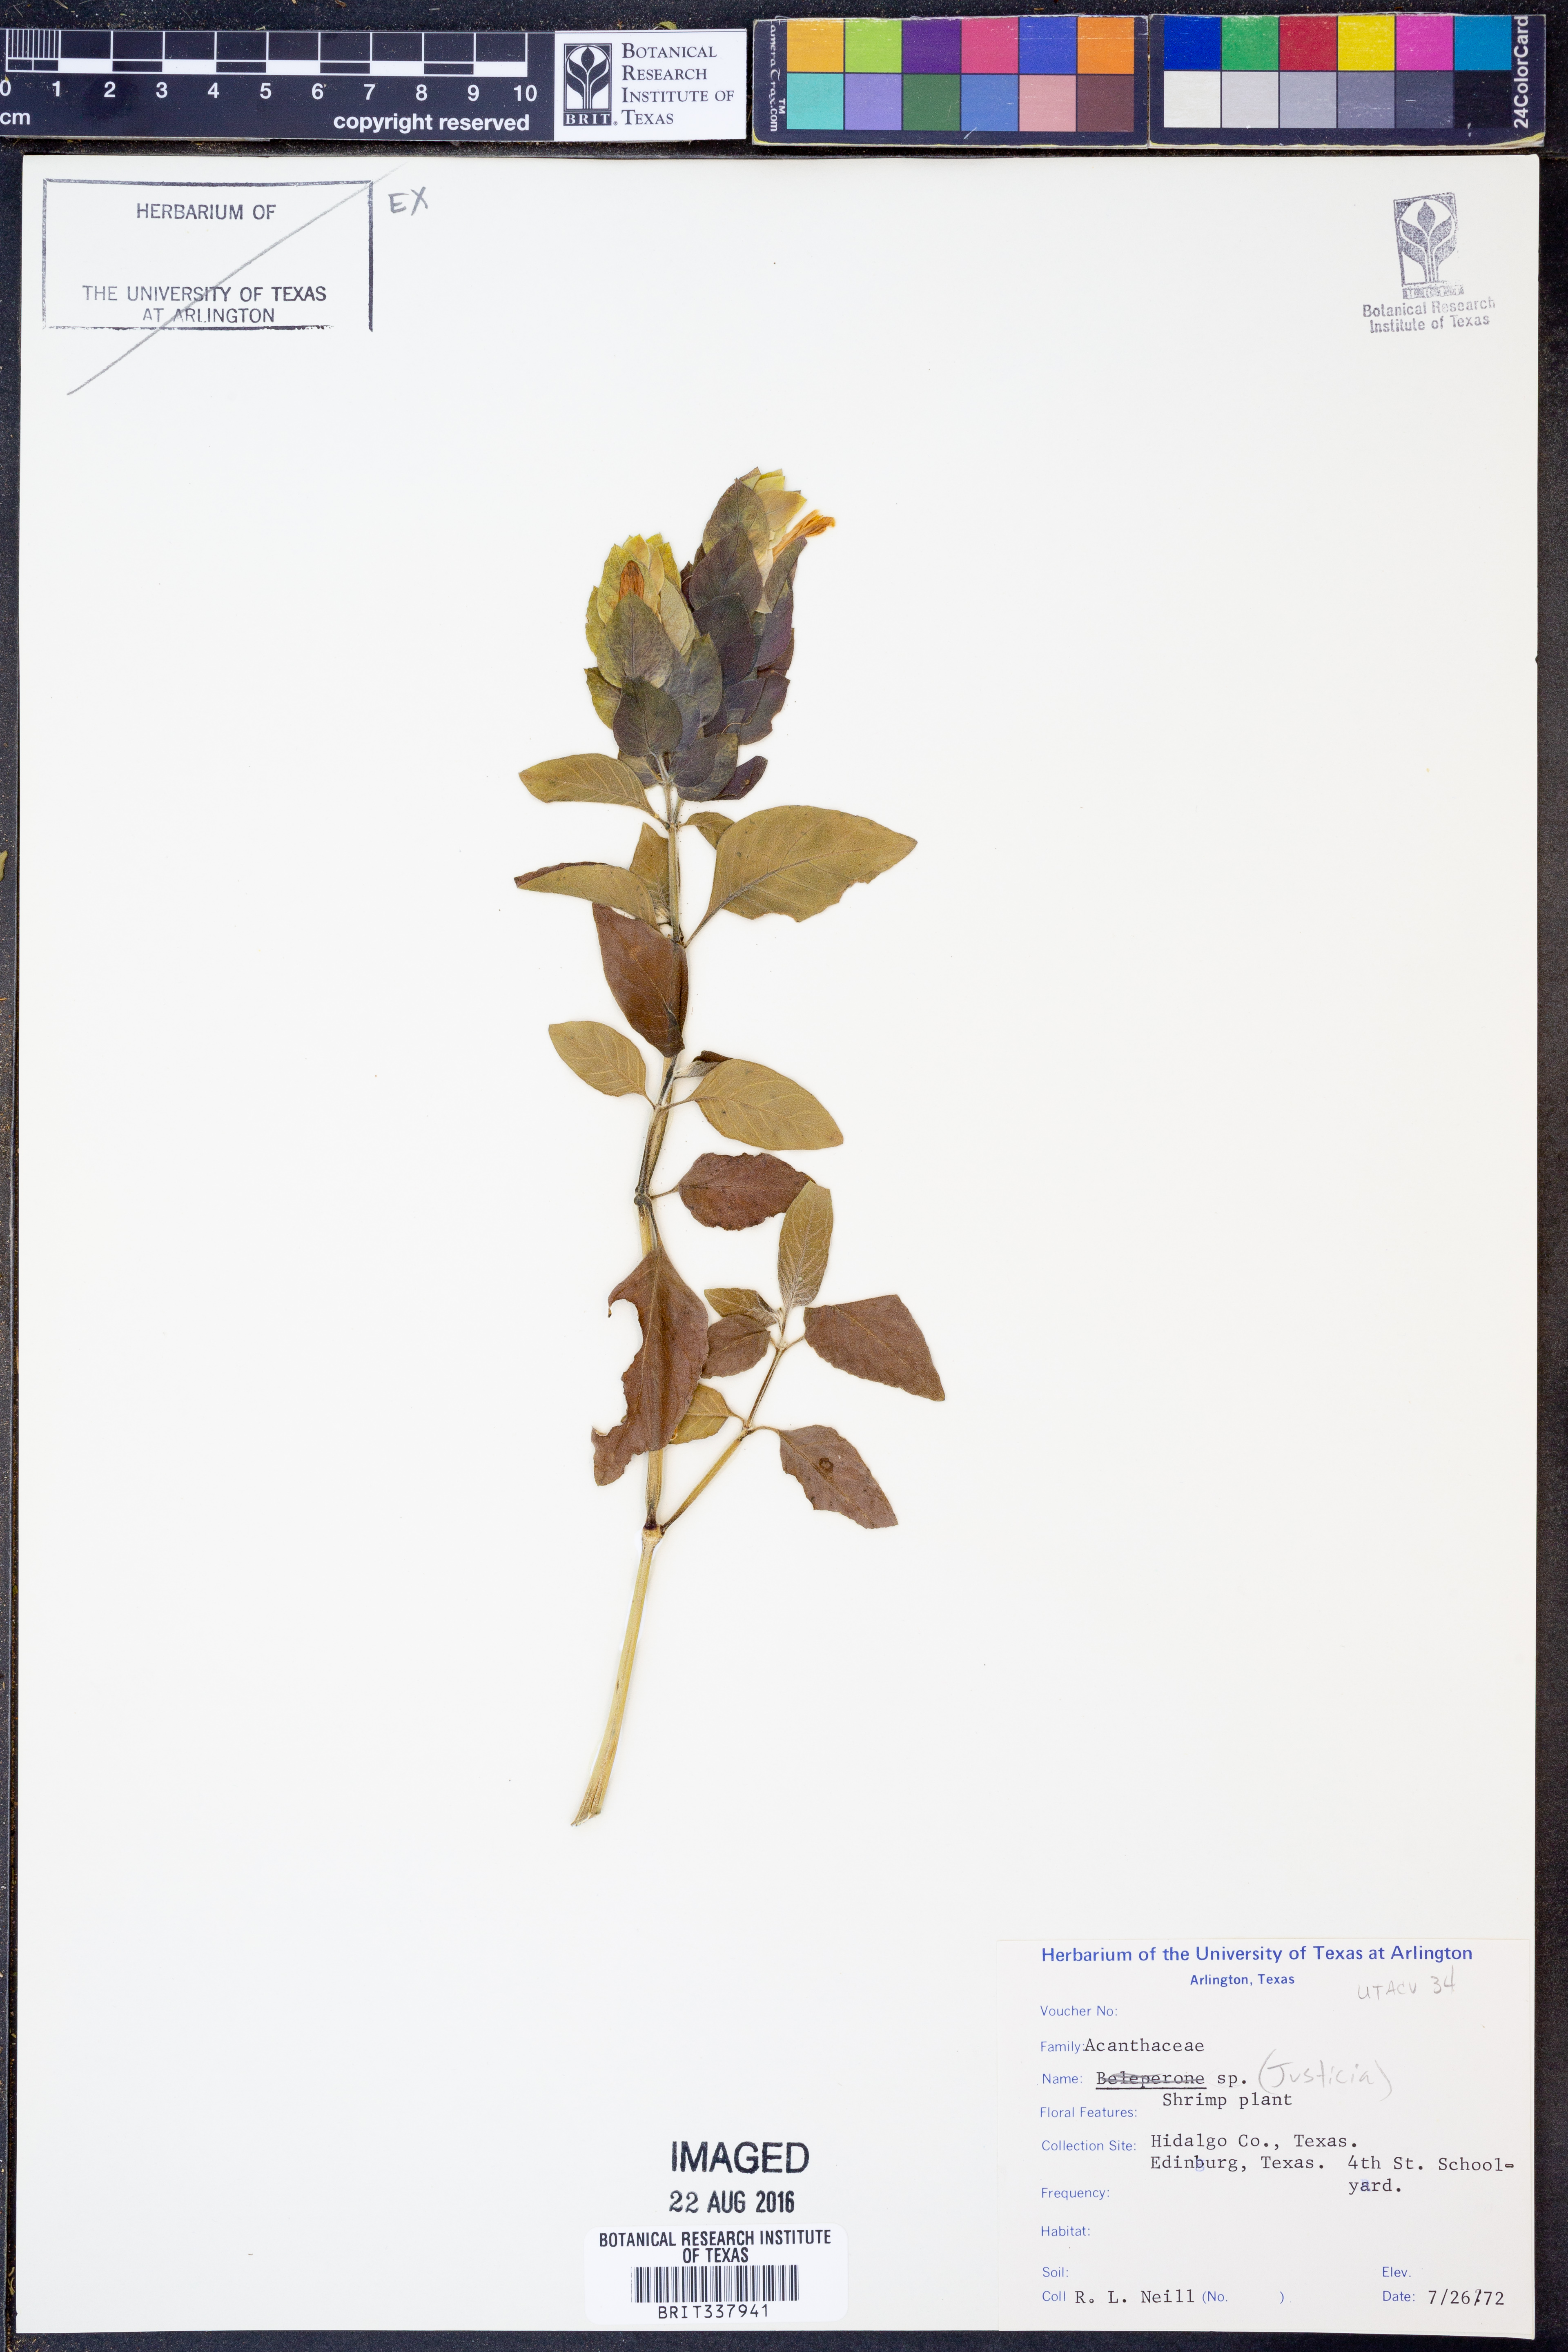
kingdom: Plantae
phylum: Tracheophyta
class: Magnoliopsida
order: Lamiales
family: Acanthaceae
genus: Justicia
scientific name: Justicia
